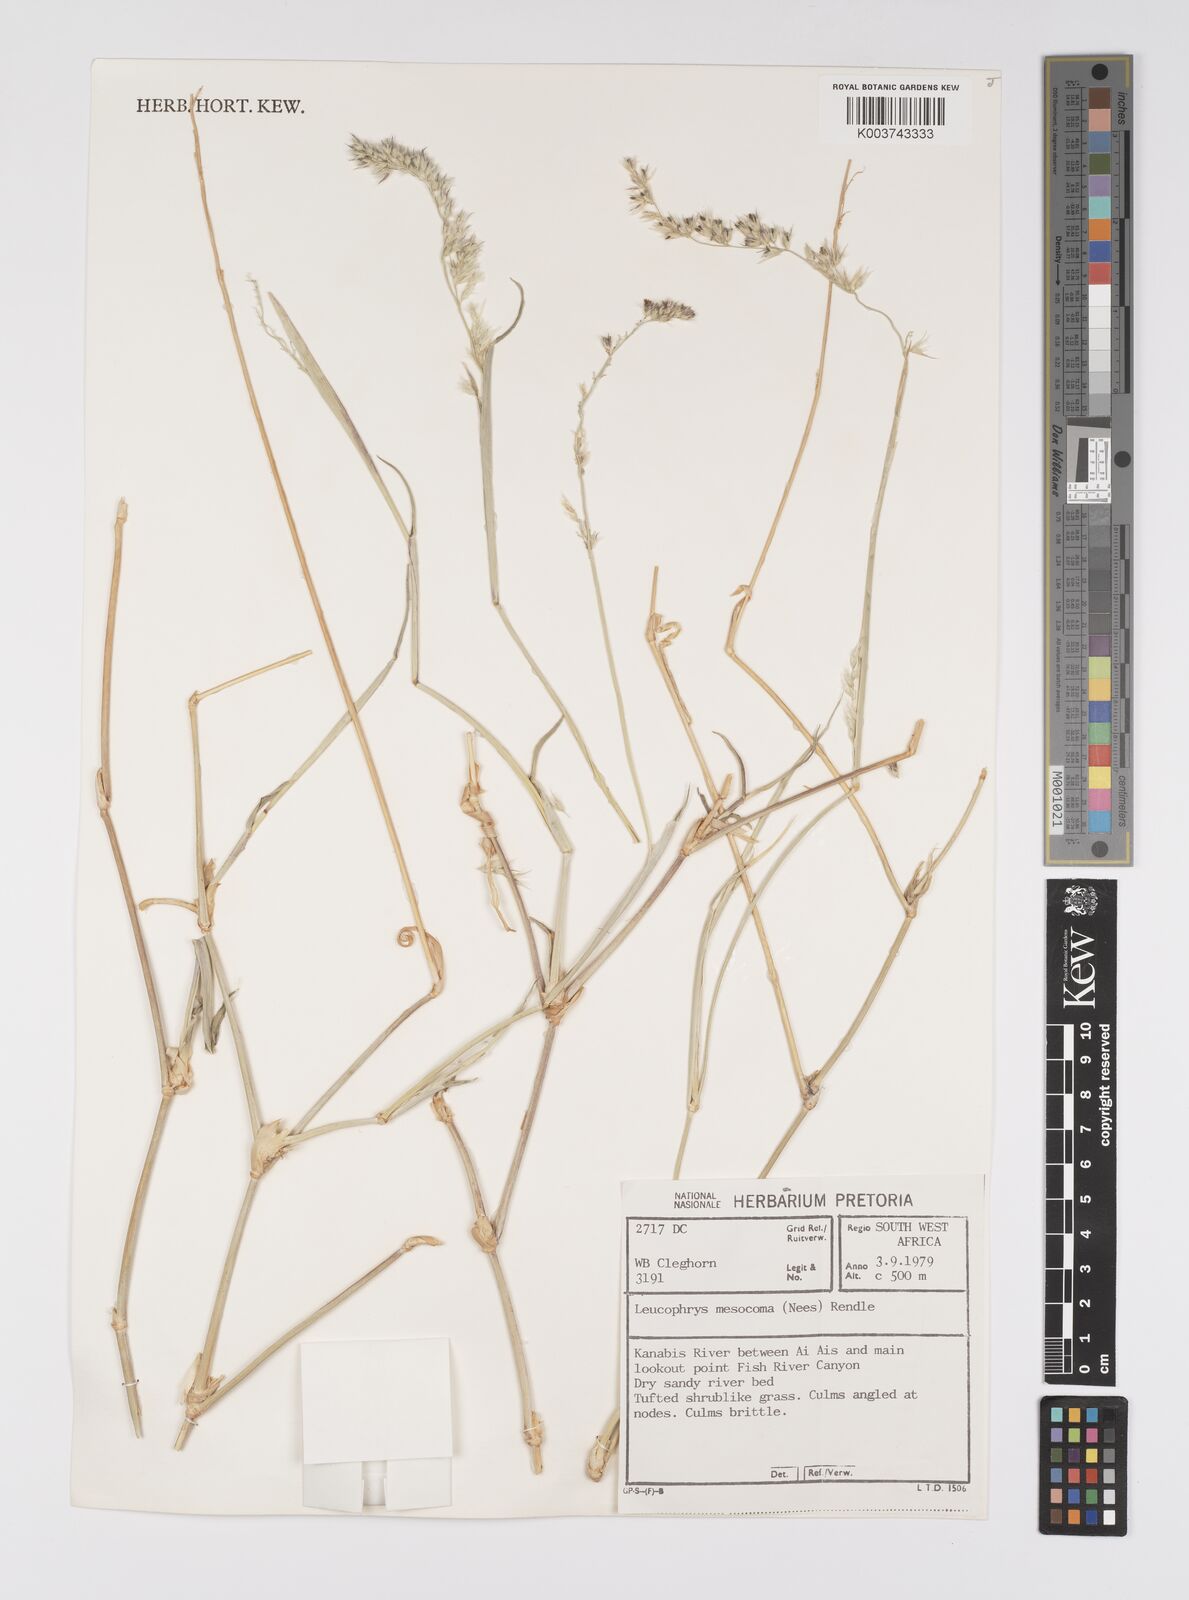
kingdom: Plantae
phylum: Tracheophyta
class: Liliopsida
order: Poales
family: Poaceae
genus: Urochloa
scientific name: Urochloa Brachiaria mesocoma
